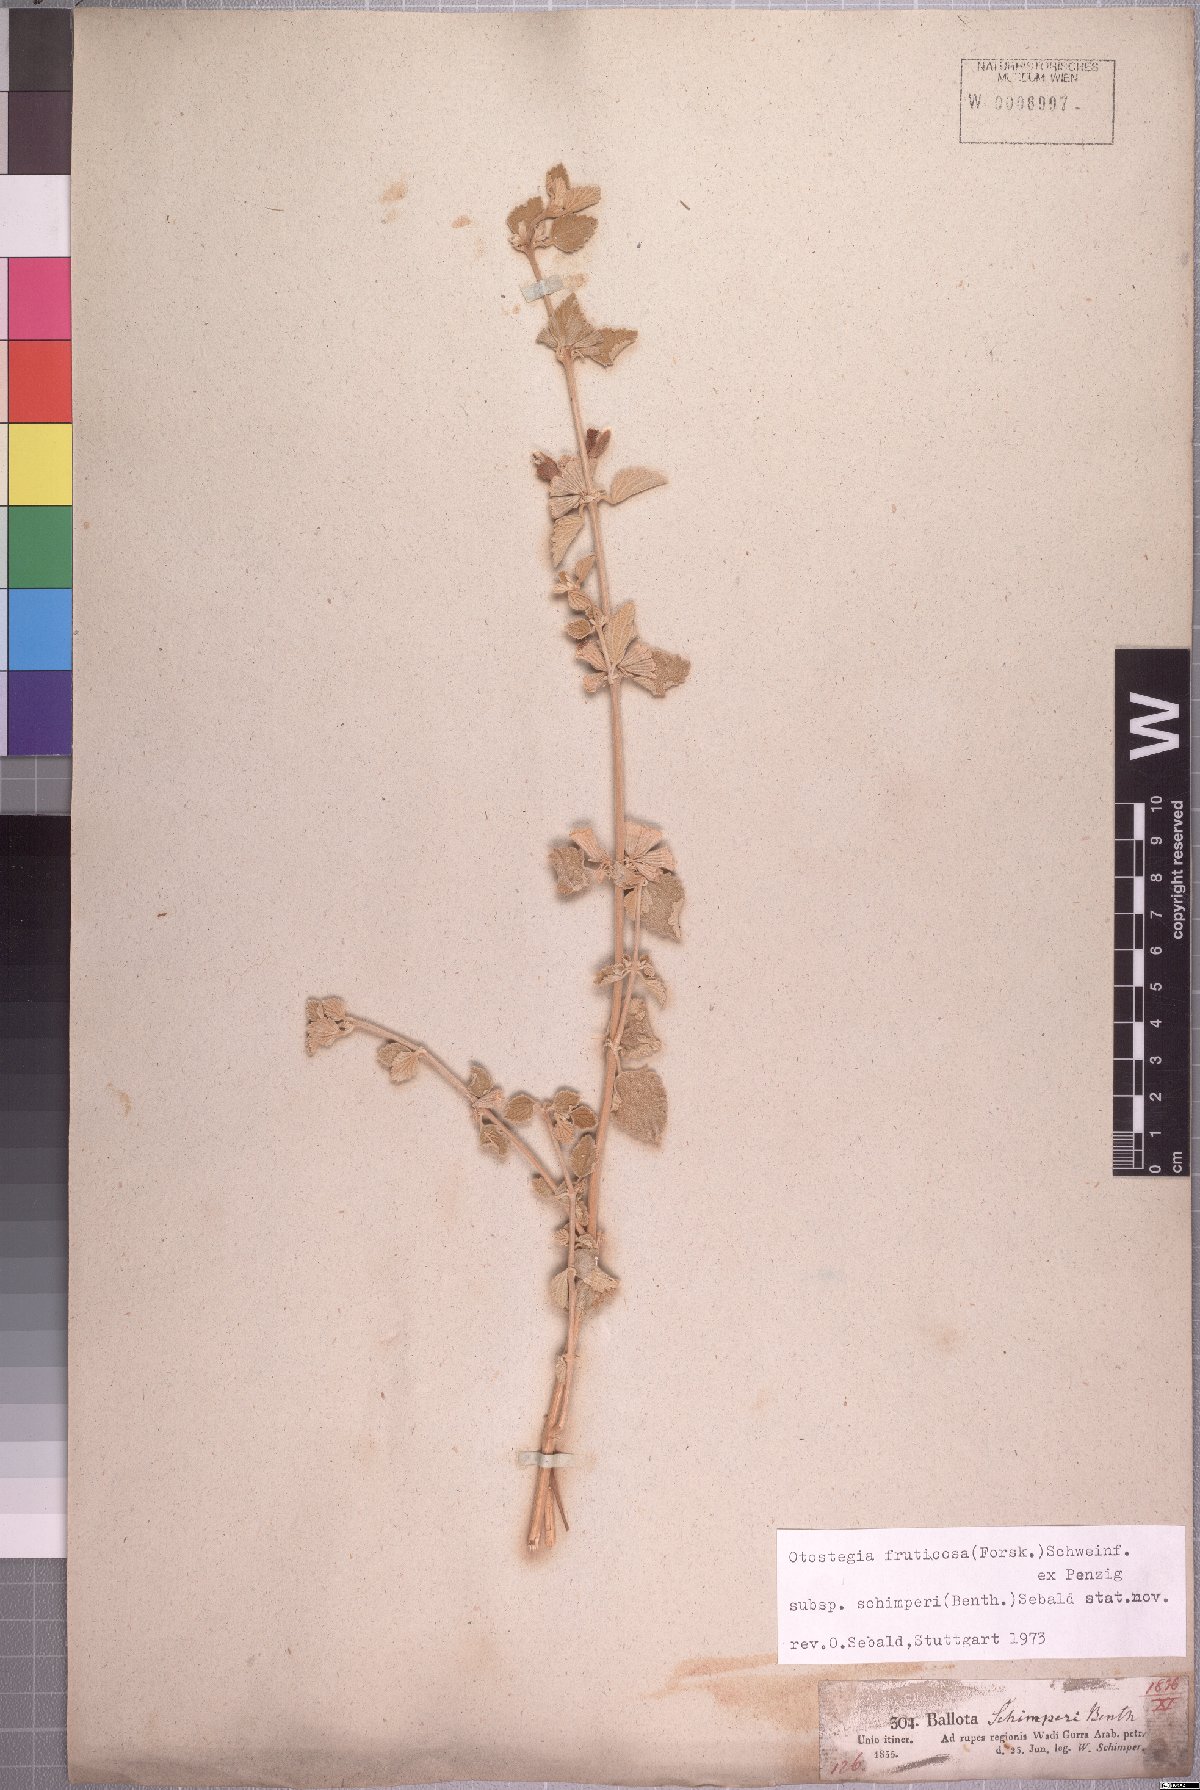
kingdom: Plantae
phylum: Tracheophyta
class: Magnoliopsida
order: Lamiales
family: Lamiaceae
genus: Otostegia
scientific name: Otostegia fruticosa
